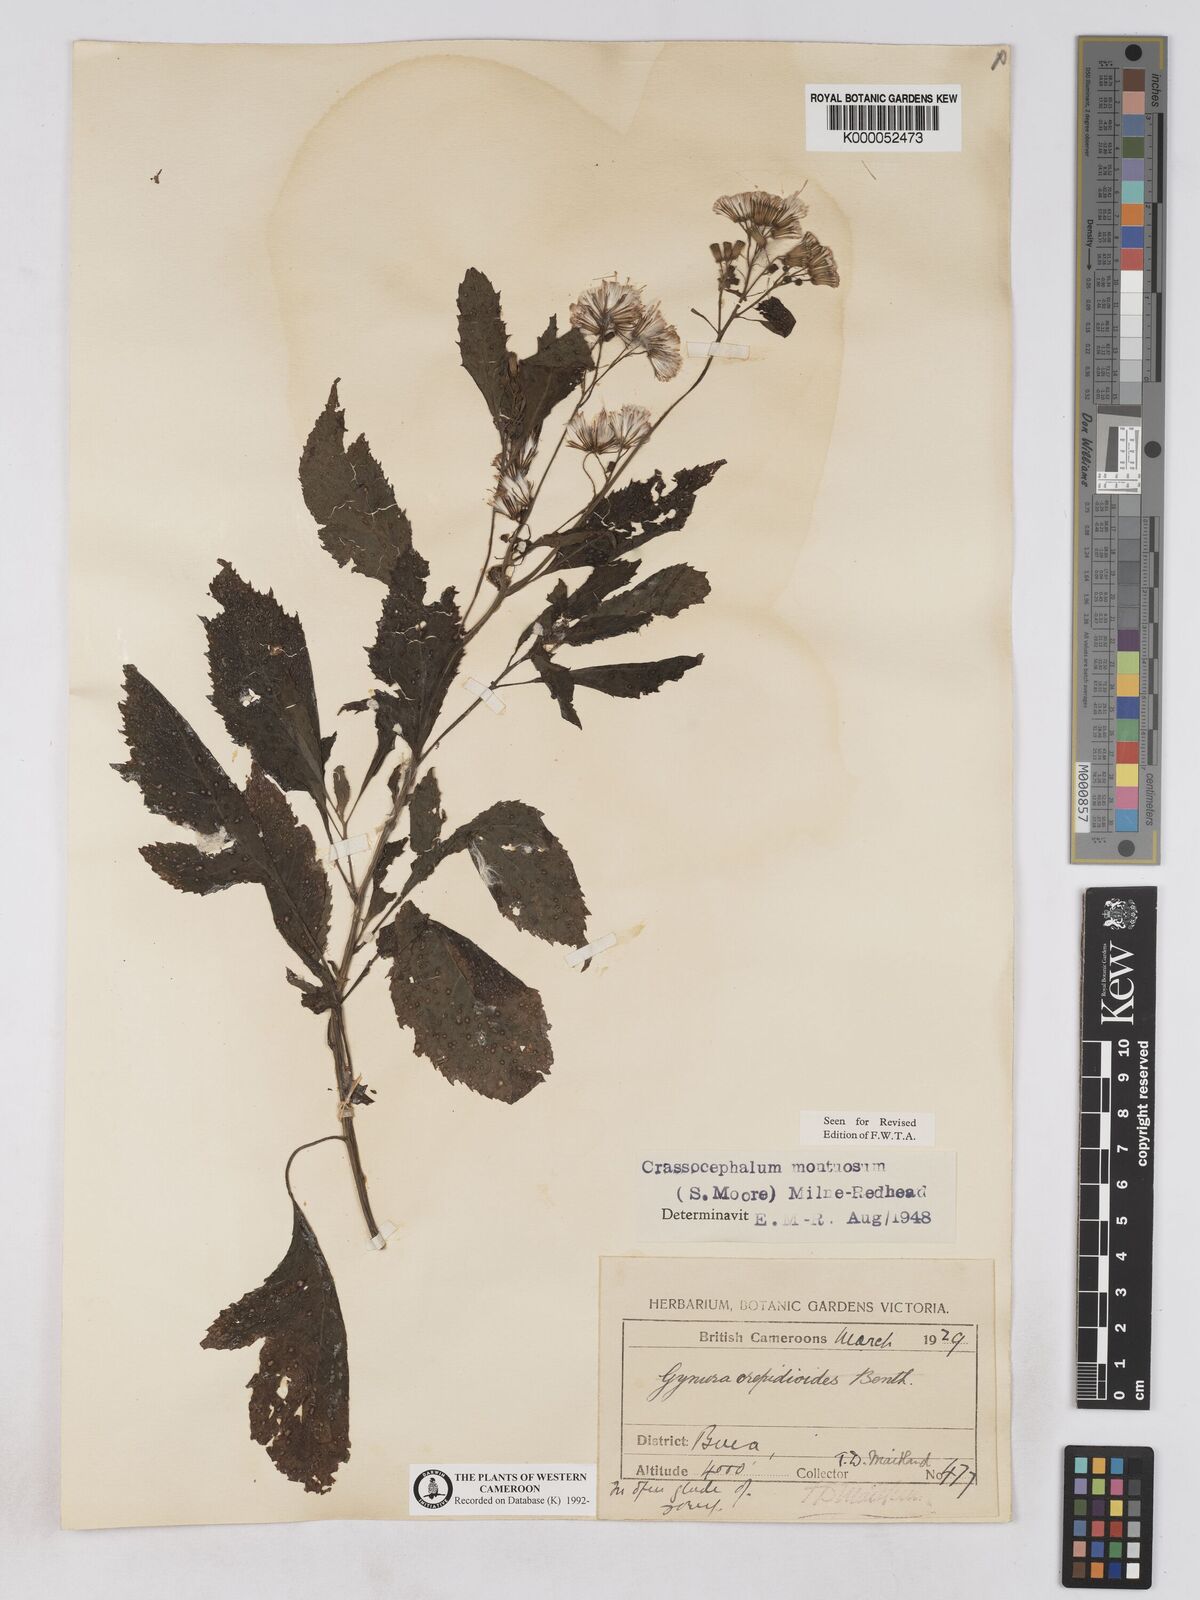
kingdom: Plantae
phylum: Tracheophyta
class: Magnoliopsida
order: Asterales
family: Asteraceae
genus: Crassocephalum
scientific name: Crassocephalum montuosum
